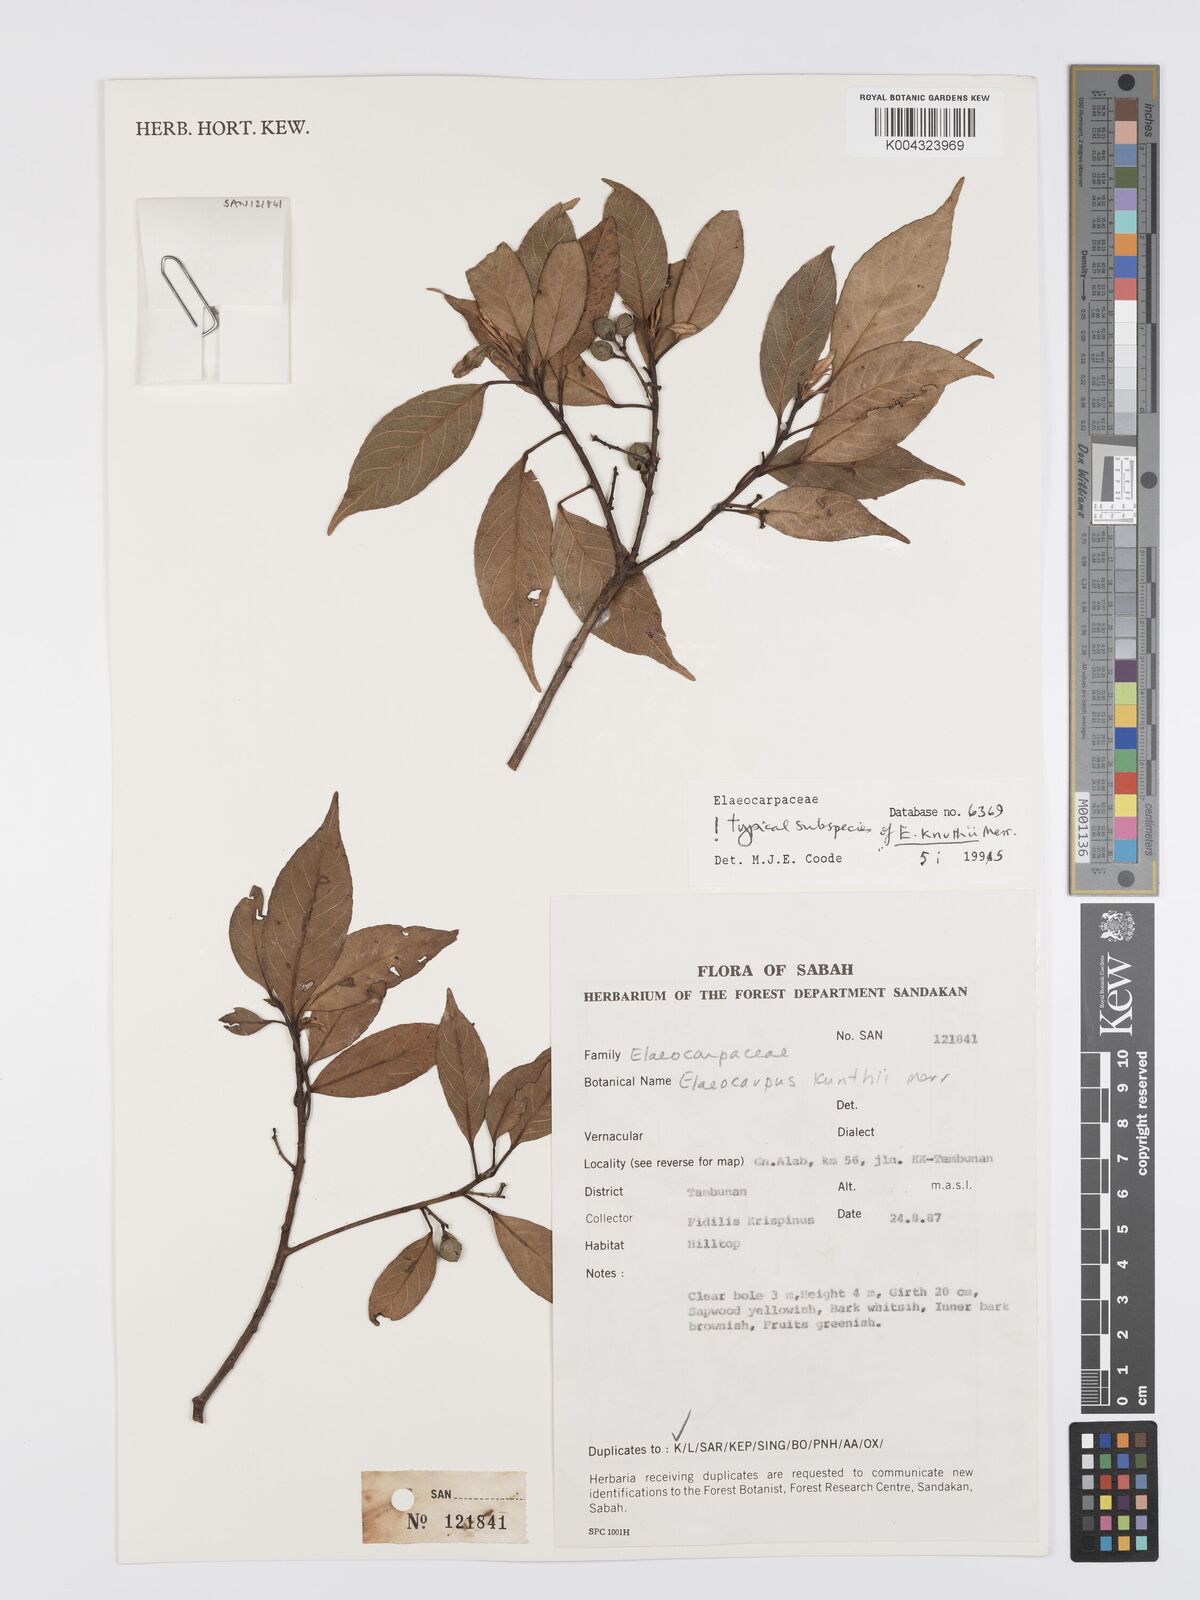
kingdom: Plantae
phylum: Tracheophyta
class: Magnoliopsida
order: Oxalidales
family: Elaeocarpaceae
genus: Elaeocarpus
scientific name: Elaeocarpus knuthii
